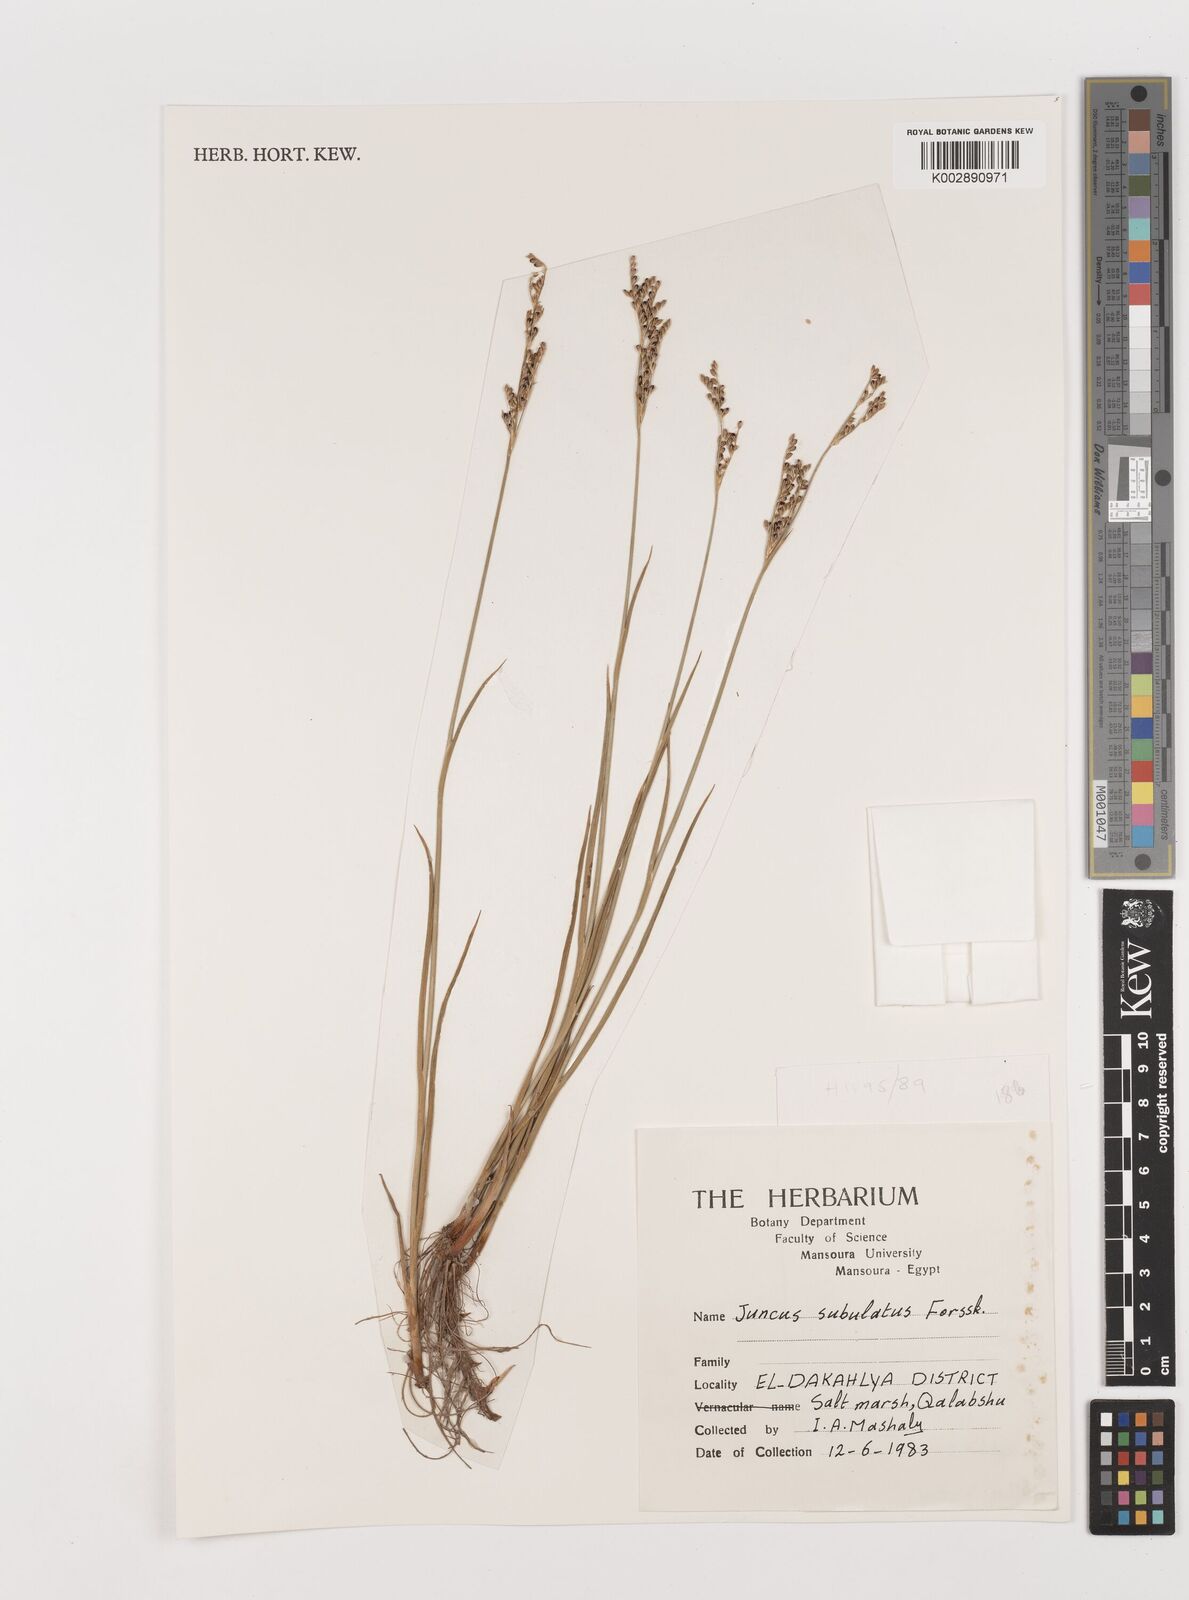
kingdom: Plantae
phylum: Tracheophyta
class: Liliopsida
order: Poales
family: Juncaceae
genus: Juncus
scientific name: Juncus subulatus
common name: Somerset rush
